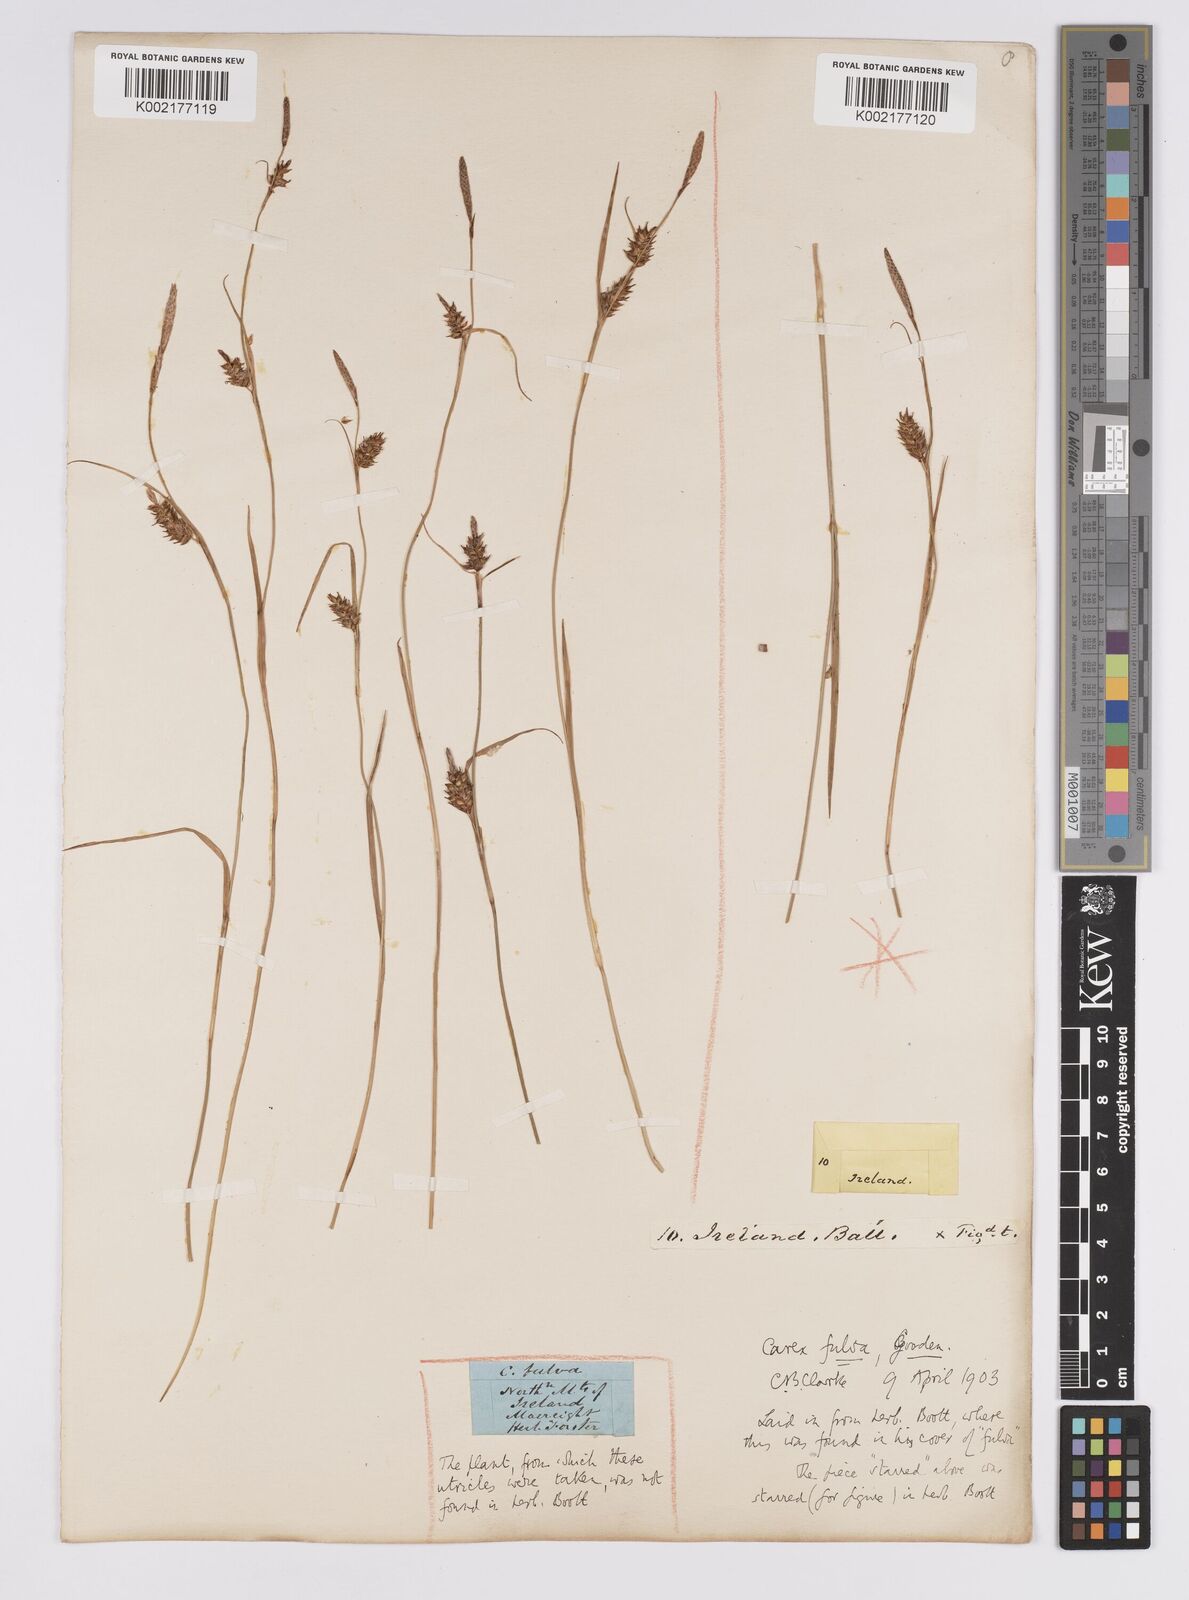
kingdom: Plantae
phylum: Tracheophyta
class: Liliopsida
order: Poales
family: Cyperaceae
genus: Carex
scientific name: Carex hostiana
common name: Tawny sedge
